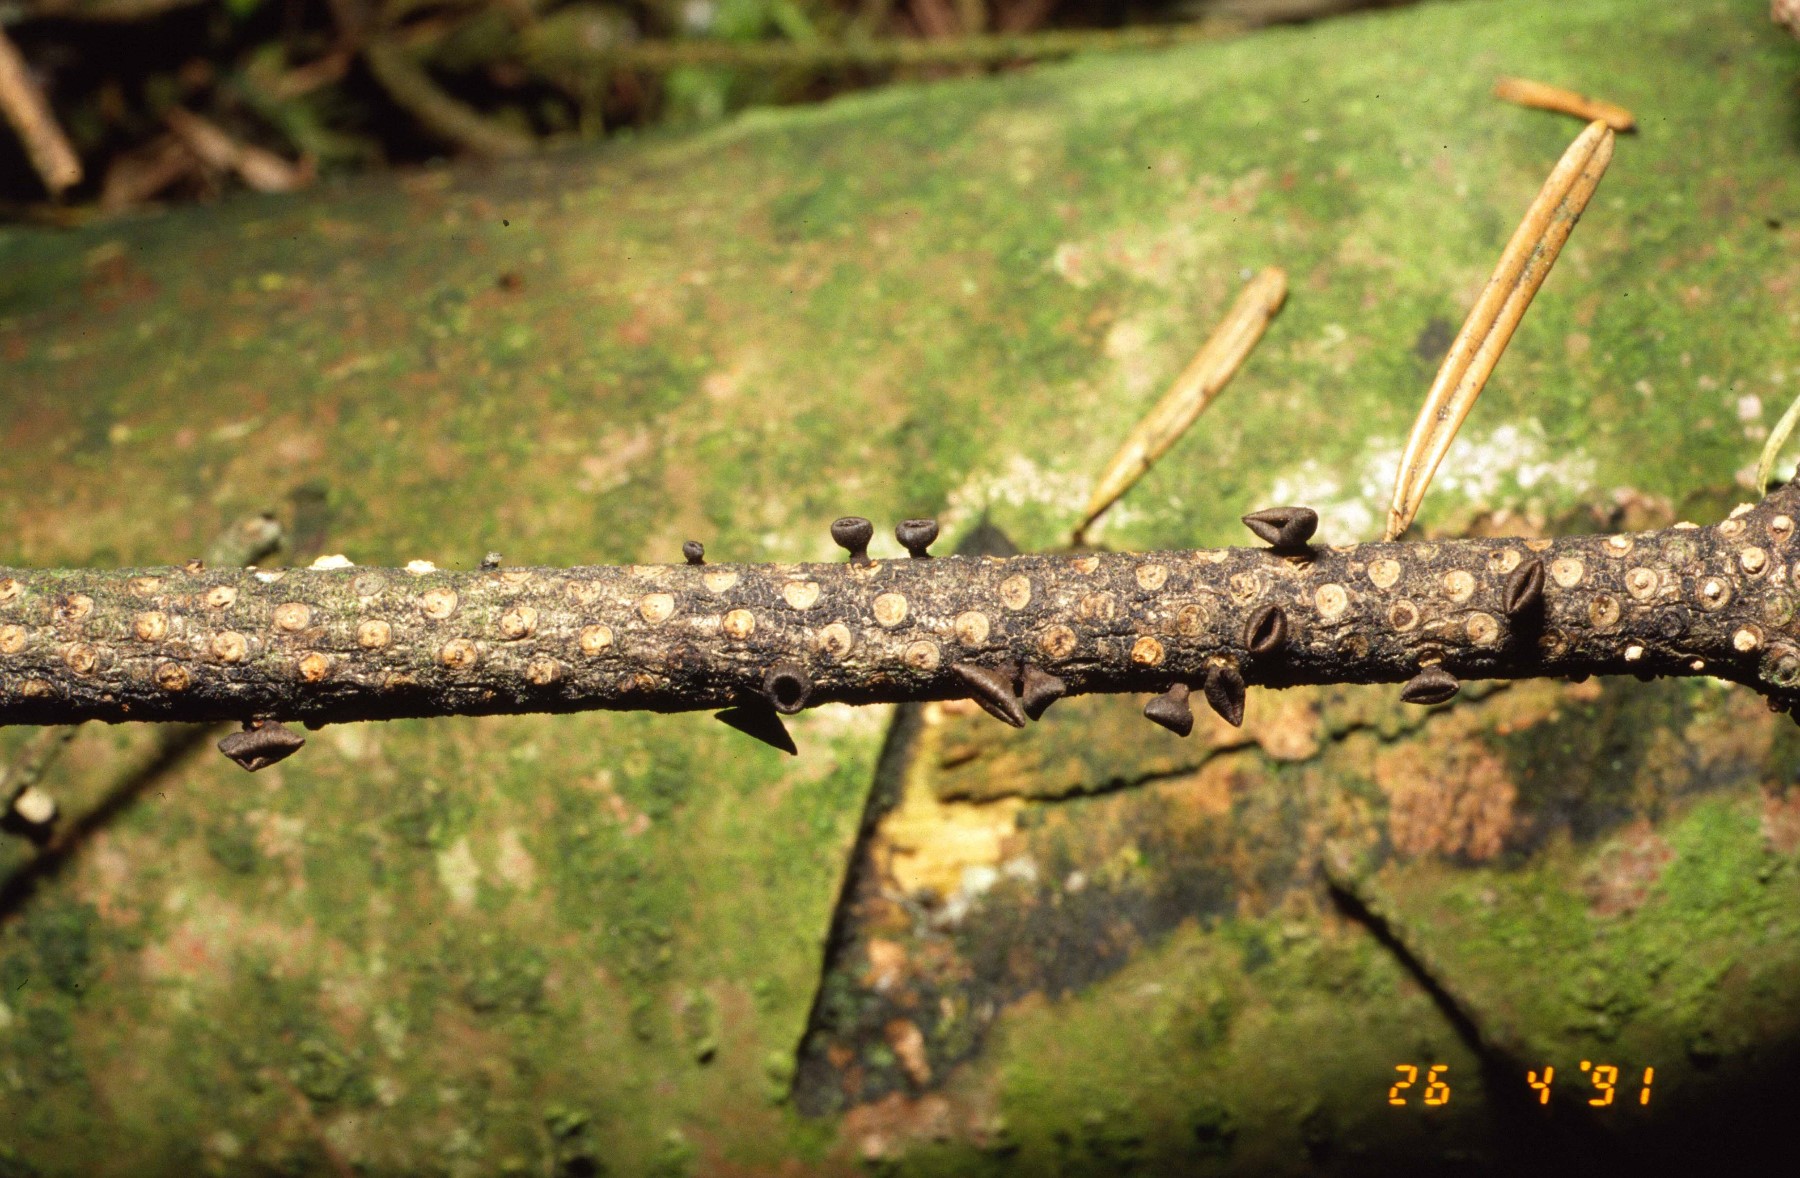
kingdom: Fungi
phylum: Ascomycota
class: Leotiomycetes
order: Helotiales
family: Rutstroemiaceae
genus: Rutstroemia
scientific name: Rutstroemia elatina
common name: ædelgran-brunskive
